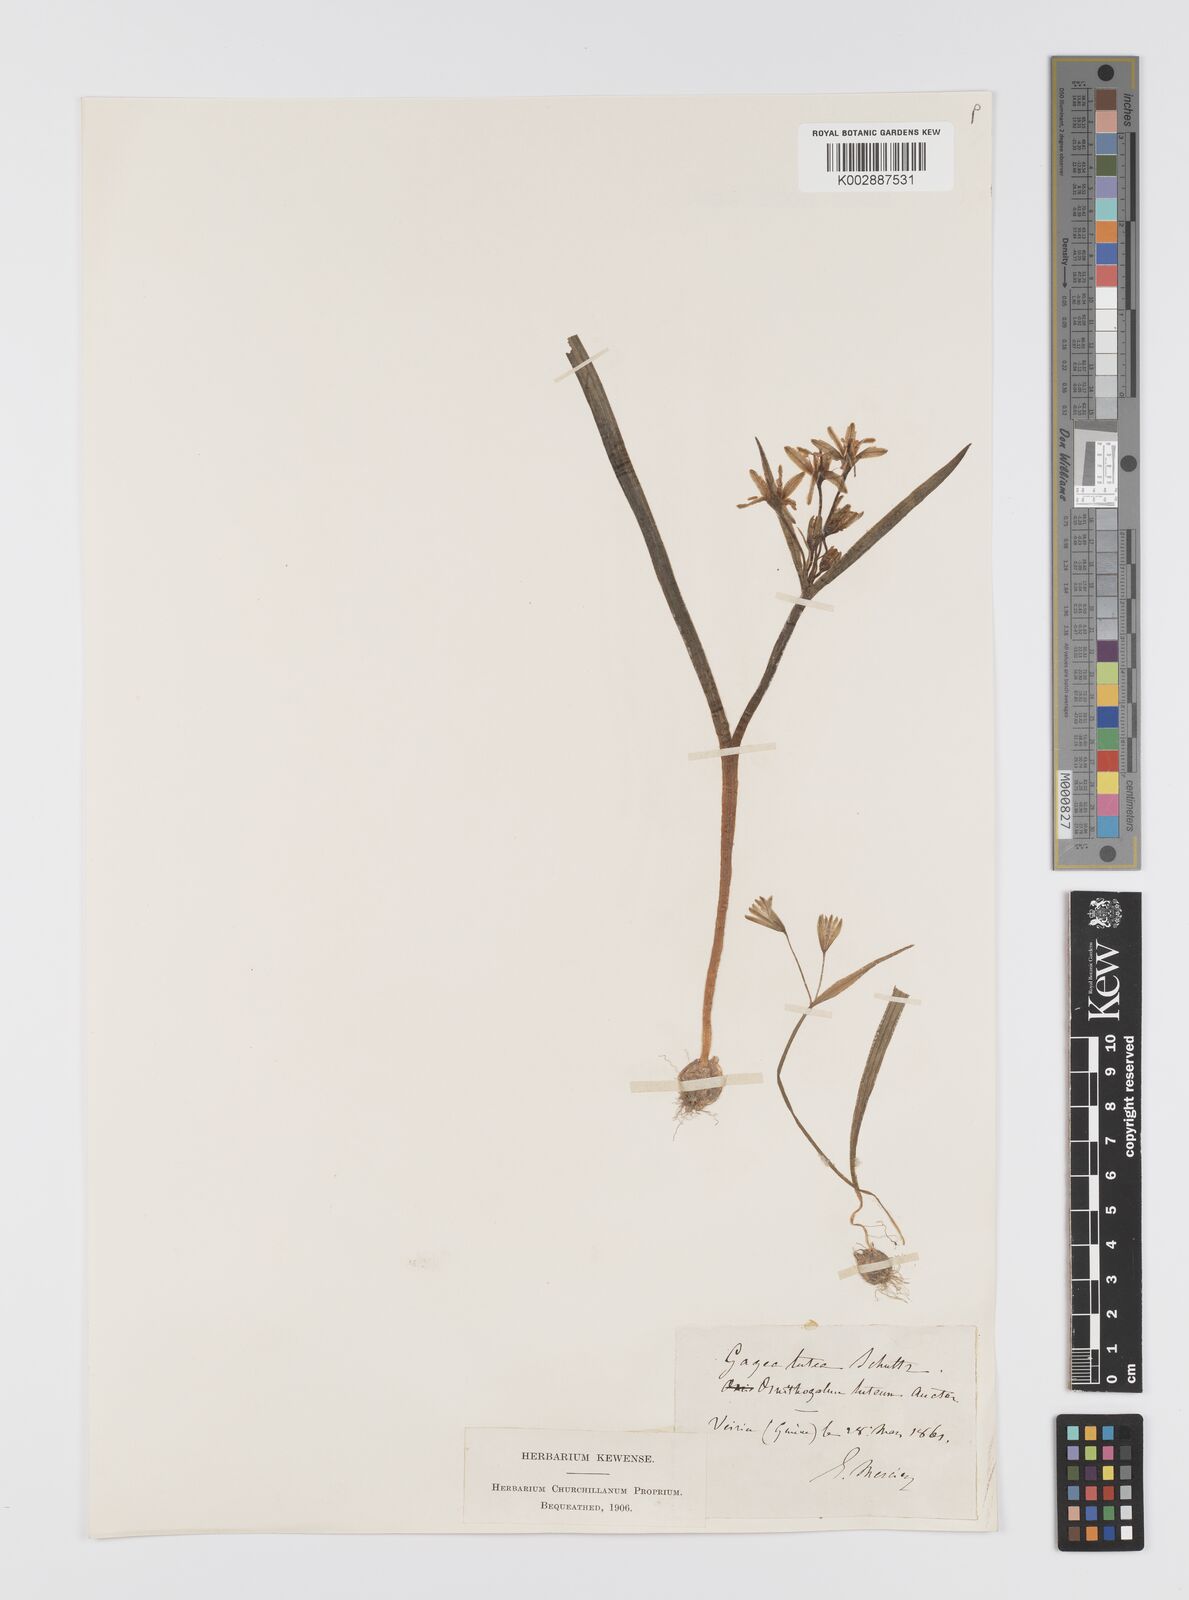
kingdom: Plantae
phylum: Tracheophyta
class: Liliopsida
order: Liliales
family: Liliaceae
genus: Gagea
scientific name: Gagea lutea
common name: Yellow star-of-bethlehem
